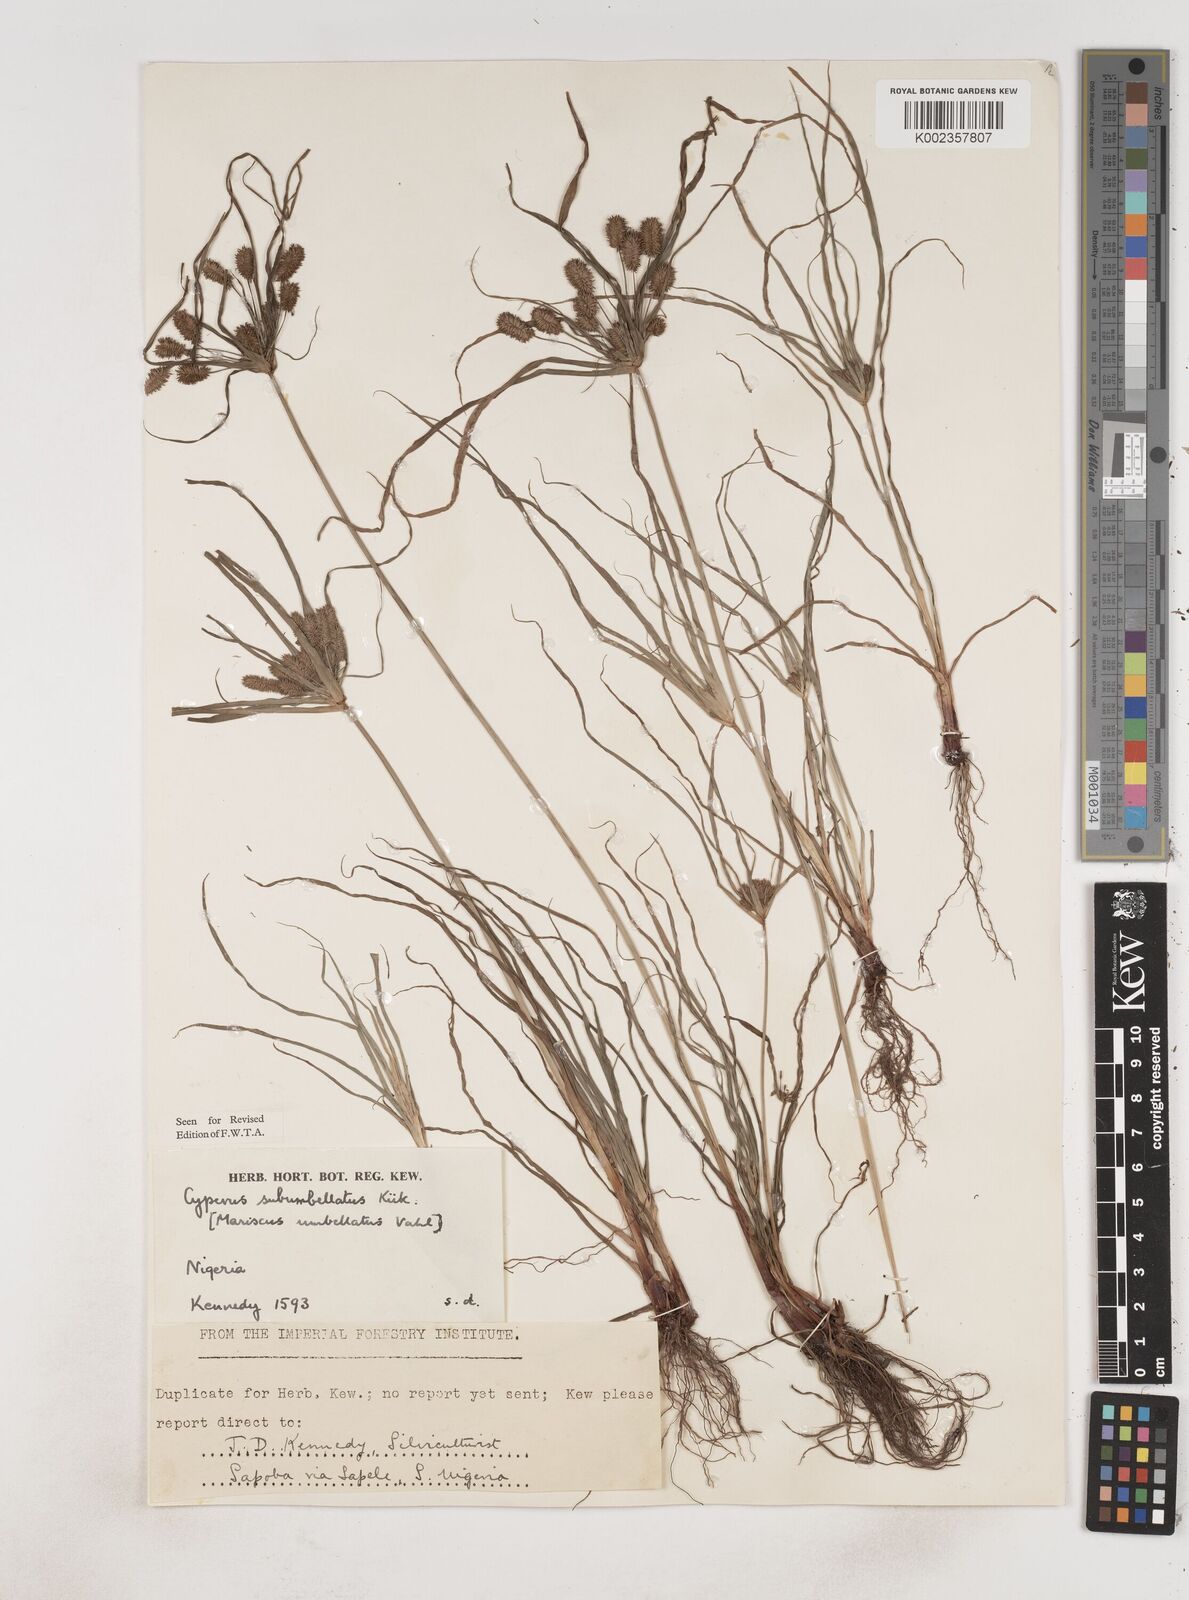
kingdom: Plantae
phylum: Tracheophyta
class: Liliopsida
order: Poales
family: Cyperaceae
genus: Cyperus
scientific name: Cyperus sublimis
